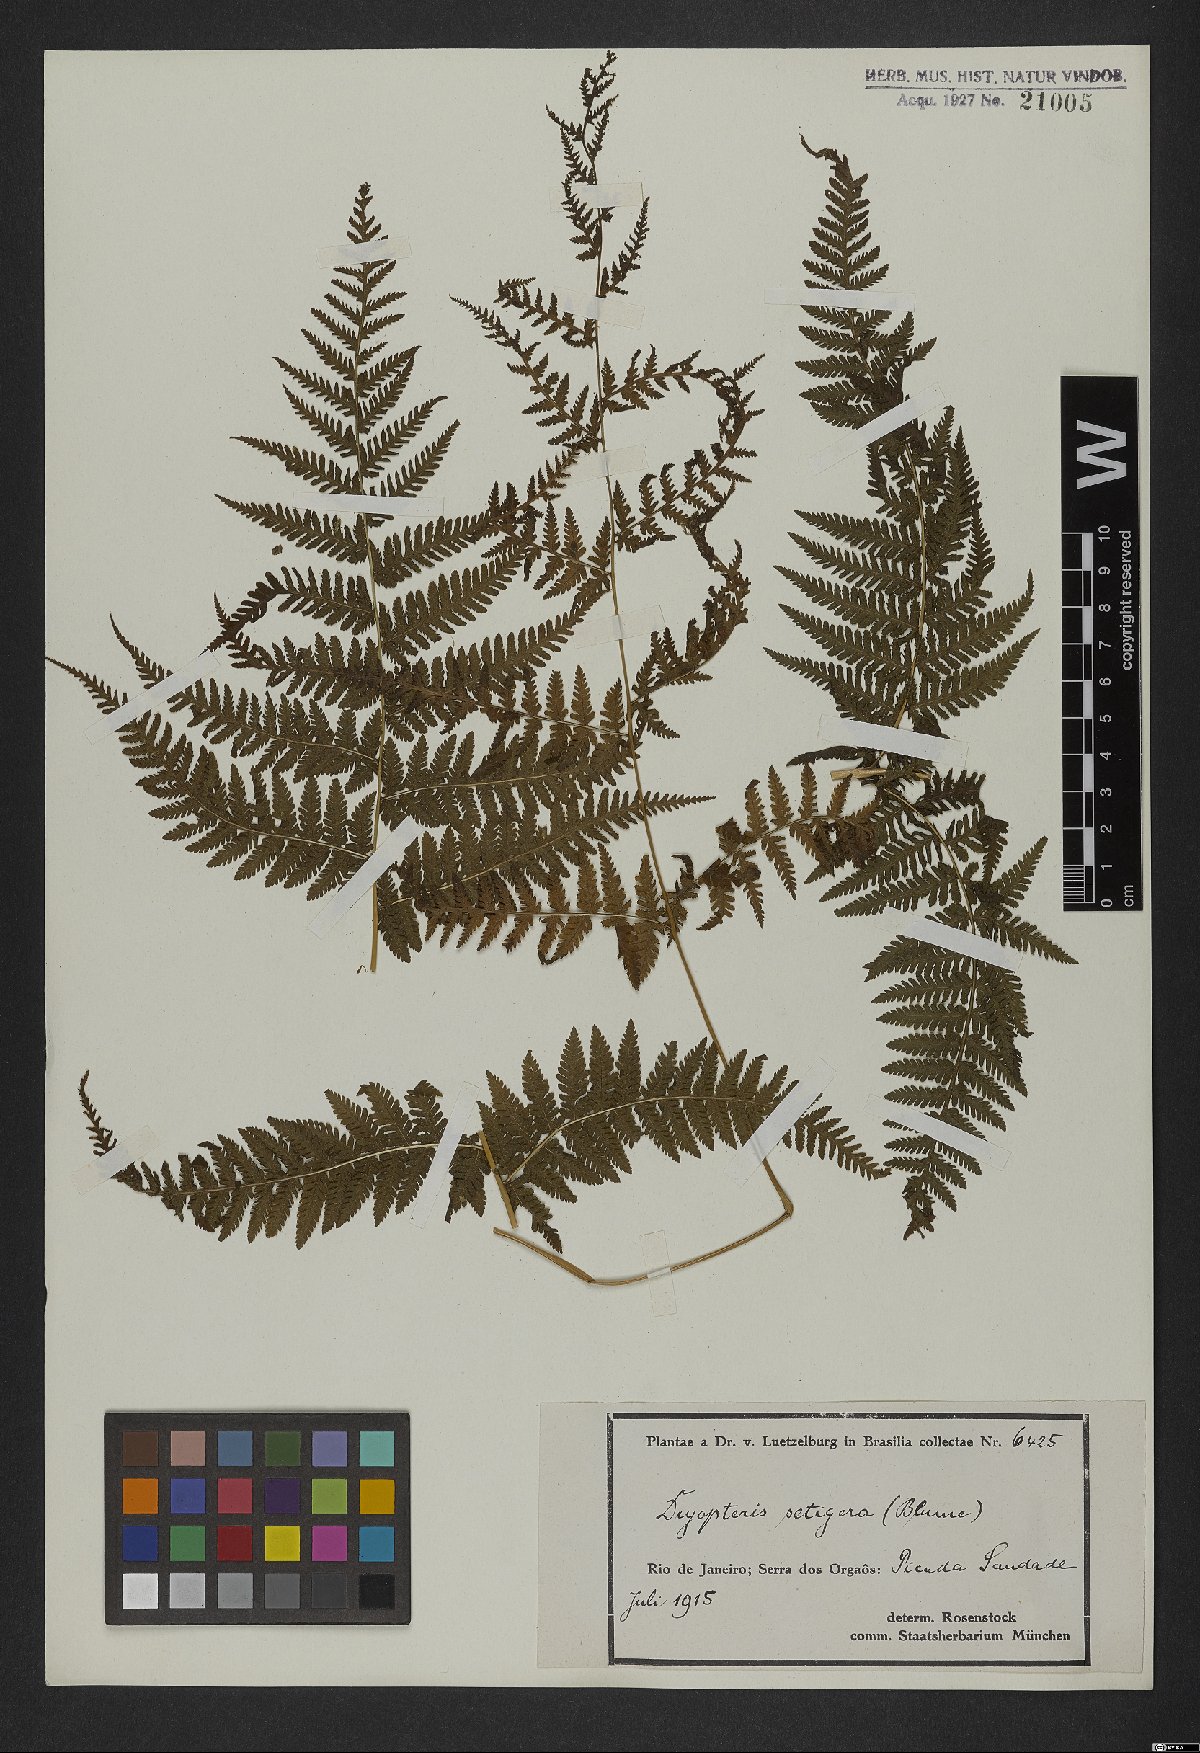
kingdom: Plantae
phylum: Tracheophyta
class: Polypodiopsida
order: Polypodiales
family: Thelypteridaceae
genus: Macrothelypteris
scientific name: Macrothelypteris torresiana
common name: Swordfern
